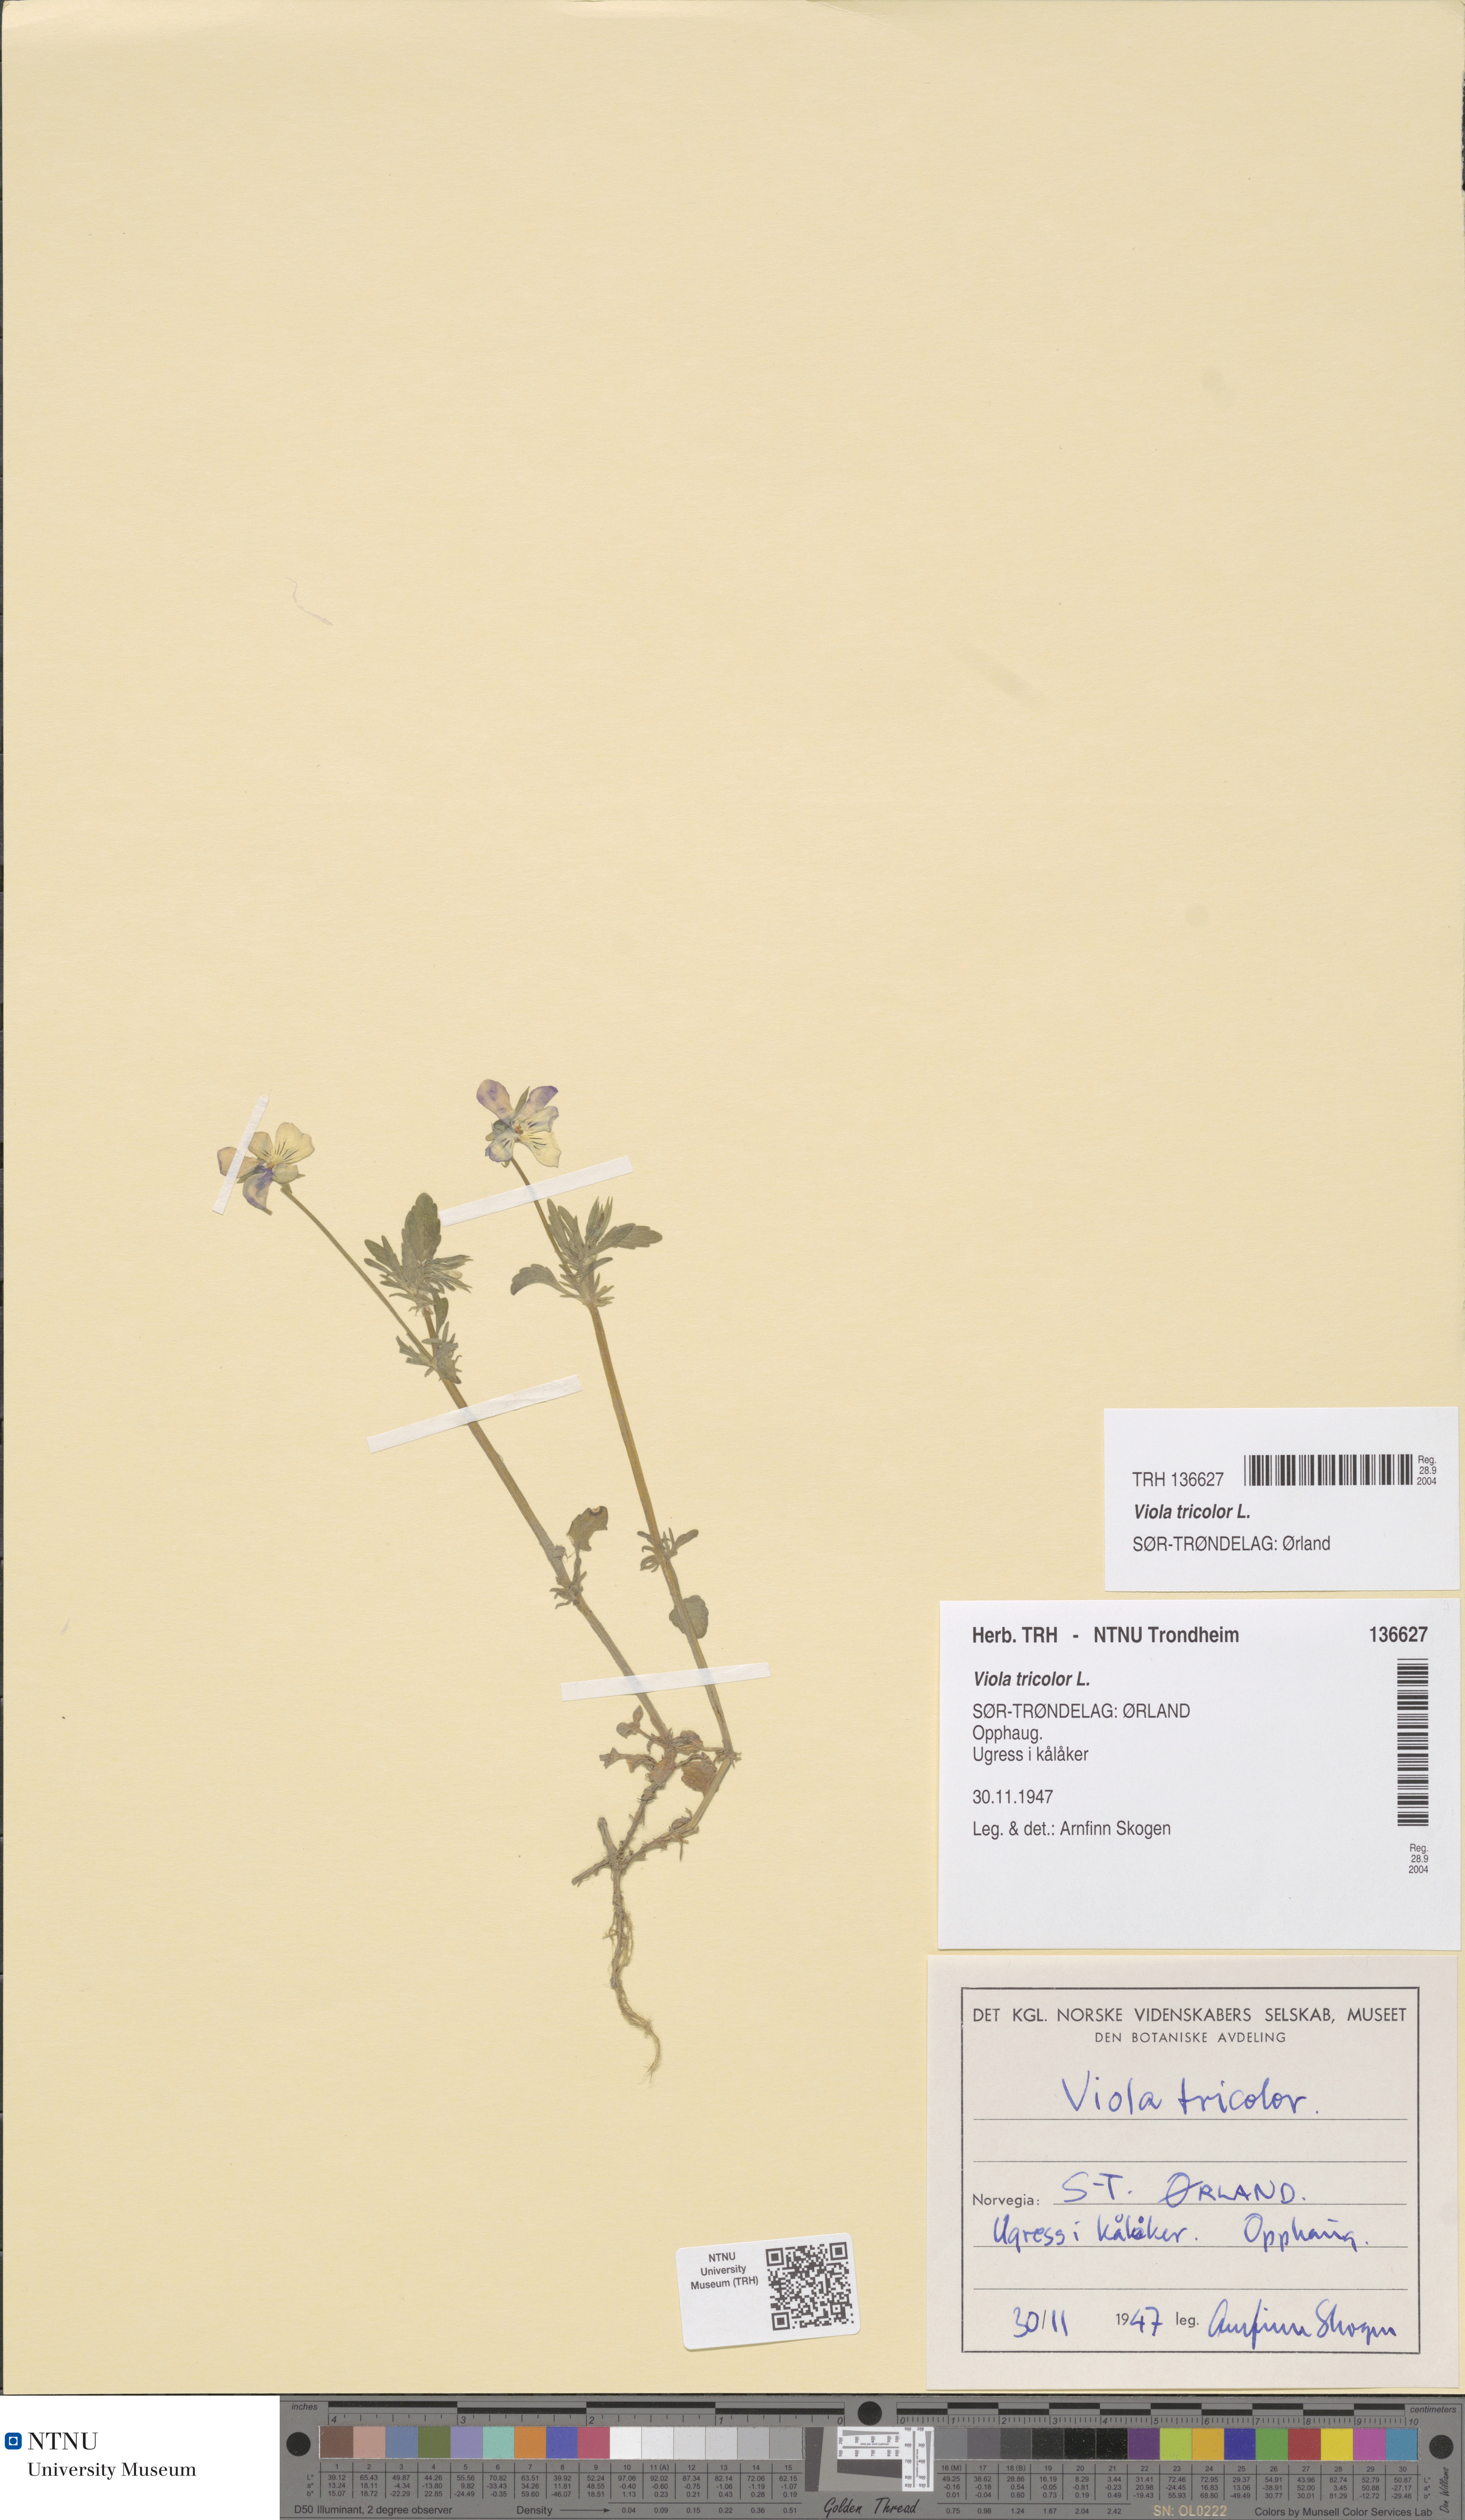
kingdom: Plantae
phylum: Tracheophyta
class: Magnoliopsida
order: Malpighiales
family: Violaceae
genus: Viola
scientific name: Viola tricolor
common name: Pansy
